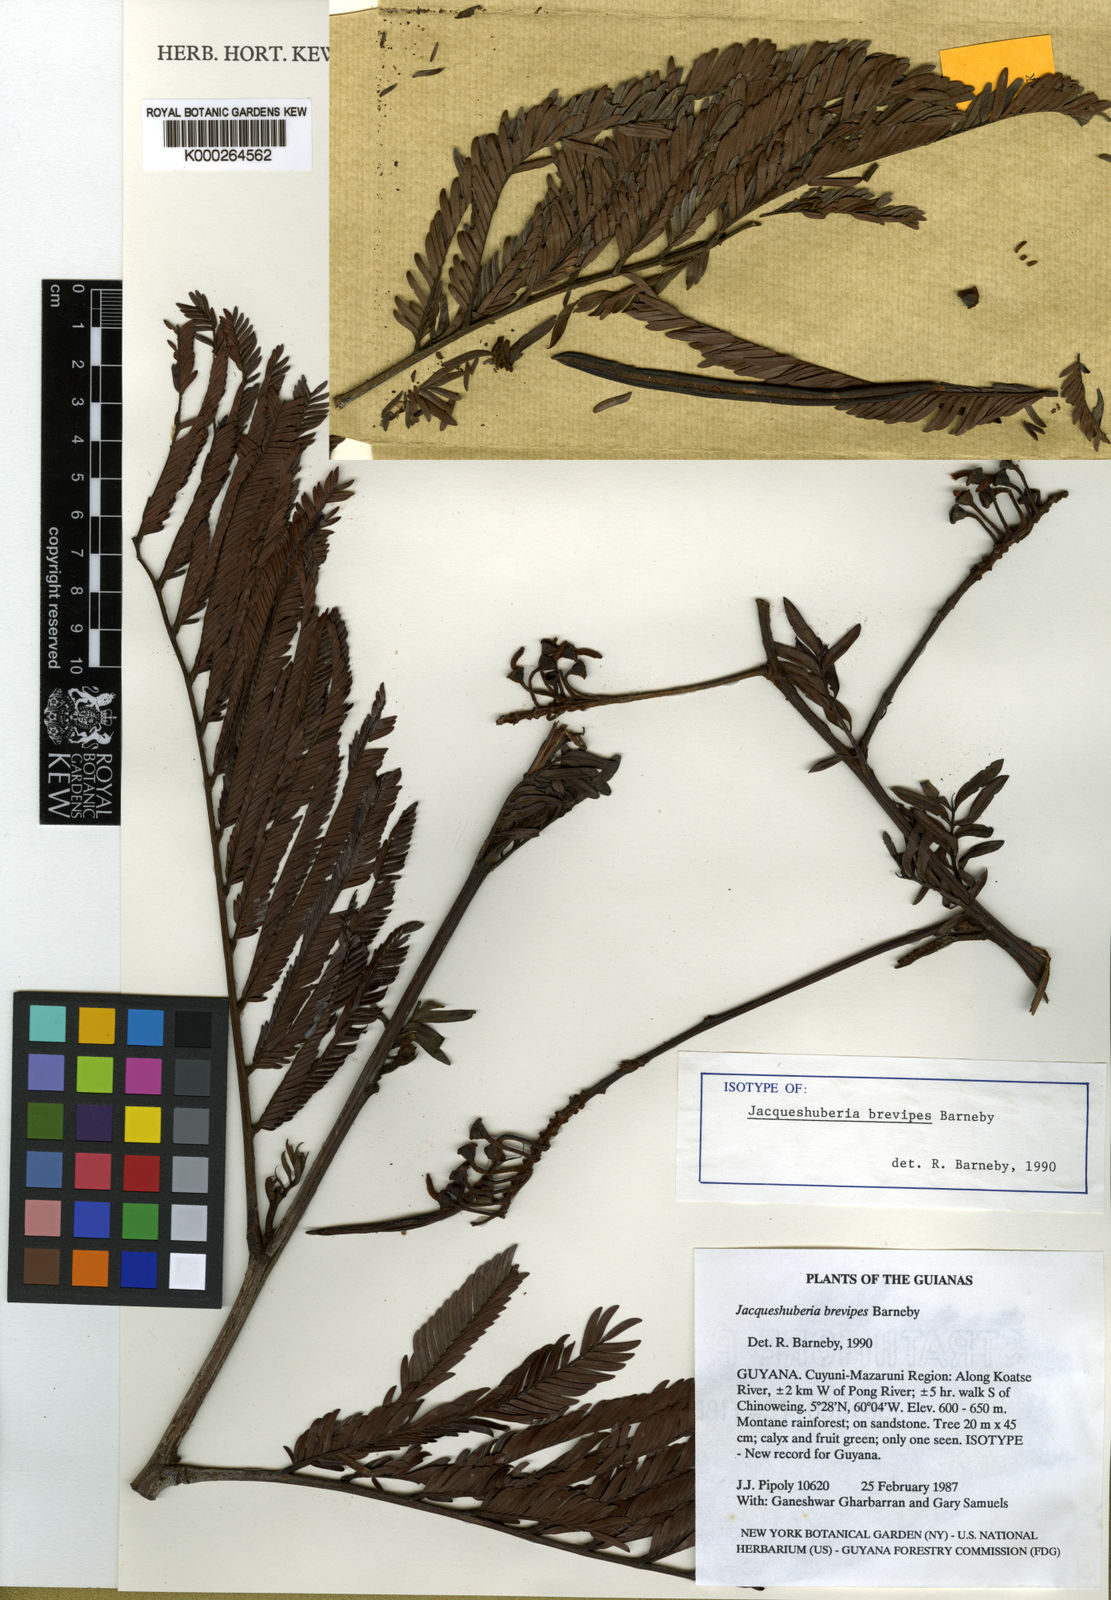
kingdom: Plantae
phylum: Tracheophyta
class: Magnoliopsida
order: Fabales
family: Fabaceae
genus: Jacqueshuberia
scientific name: Jacqueshuberia brevipes
